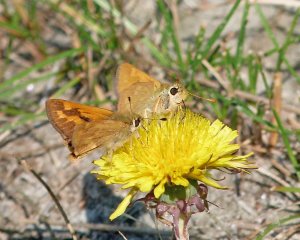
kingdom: Animalia
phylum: Arthropoda
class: Insecta
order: Lepidoptera
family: Hesperiidae
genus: Ochlodes
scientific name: Ochlodes sylvanoides
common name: Woodland Skipper
